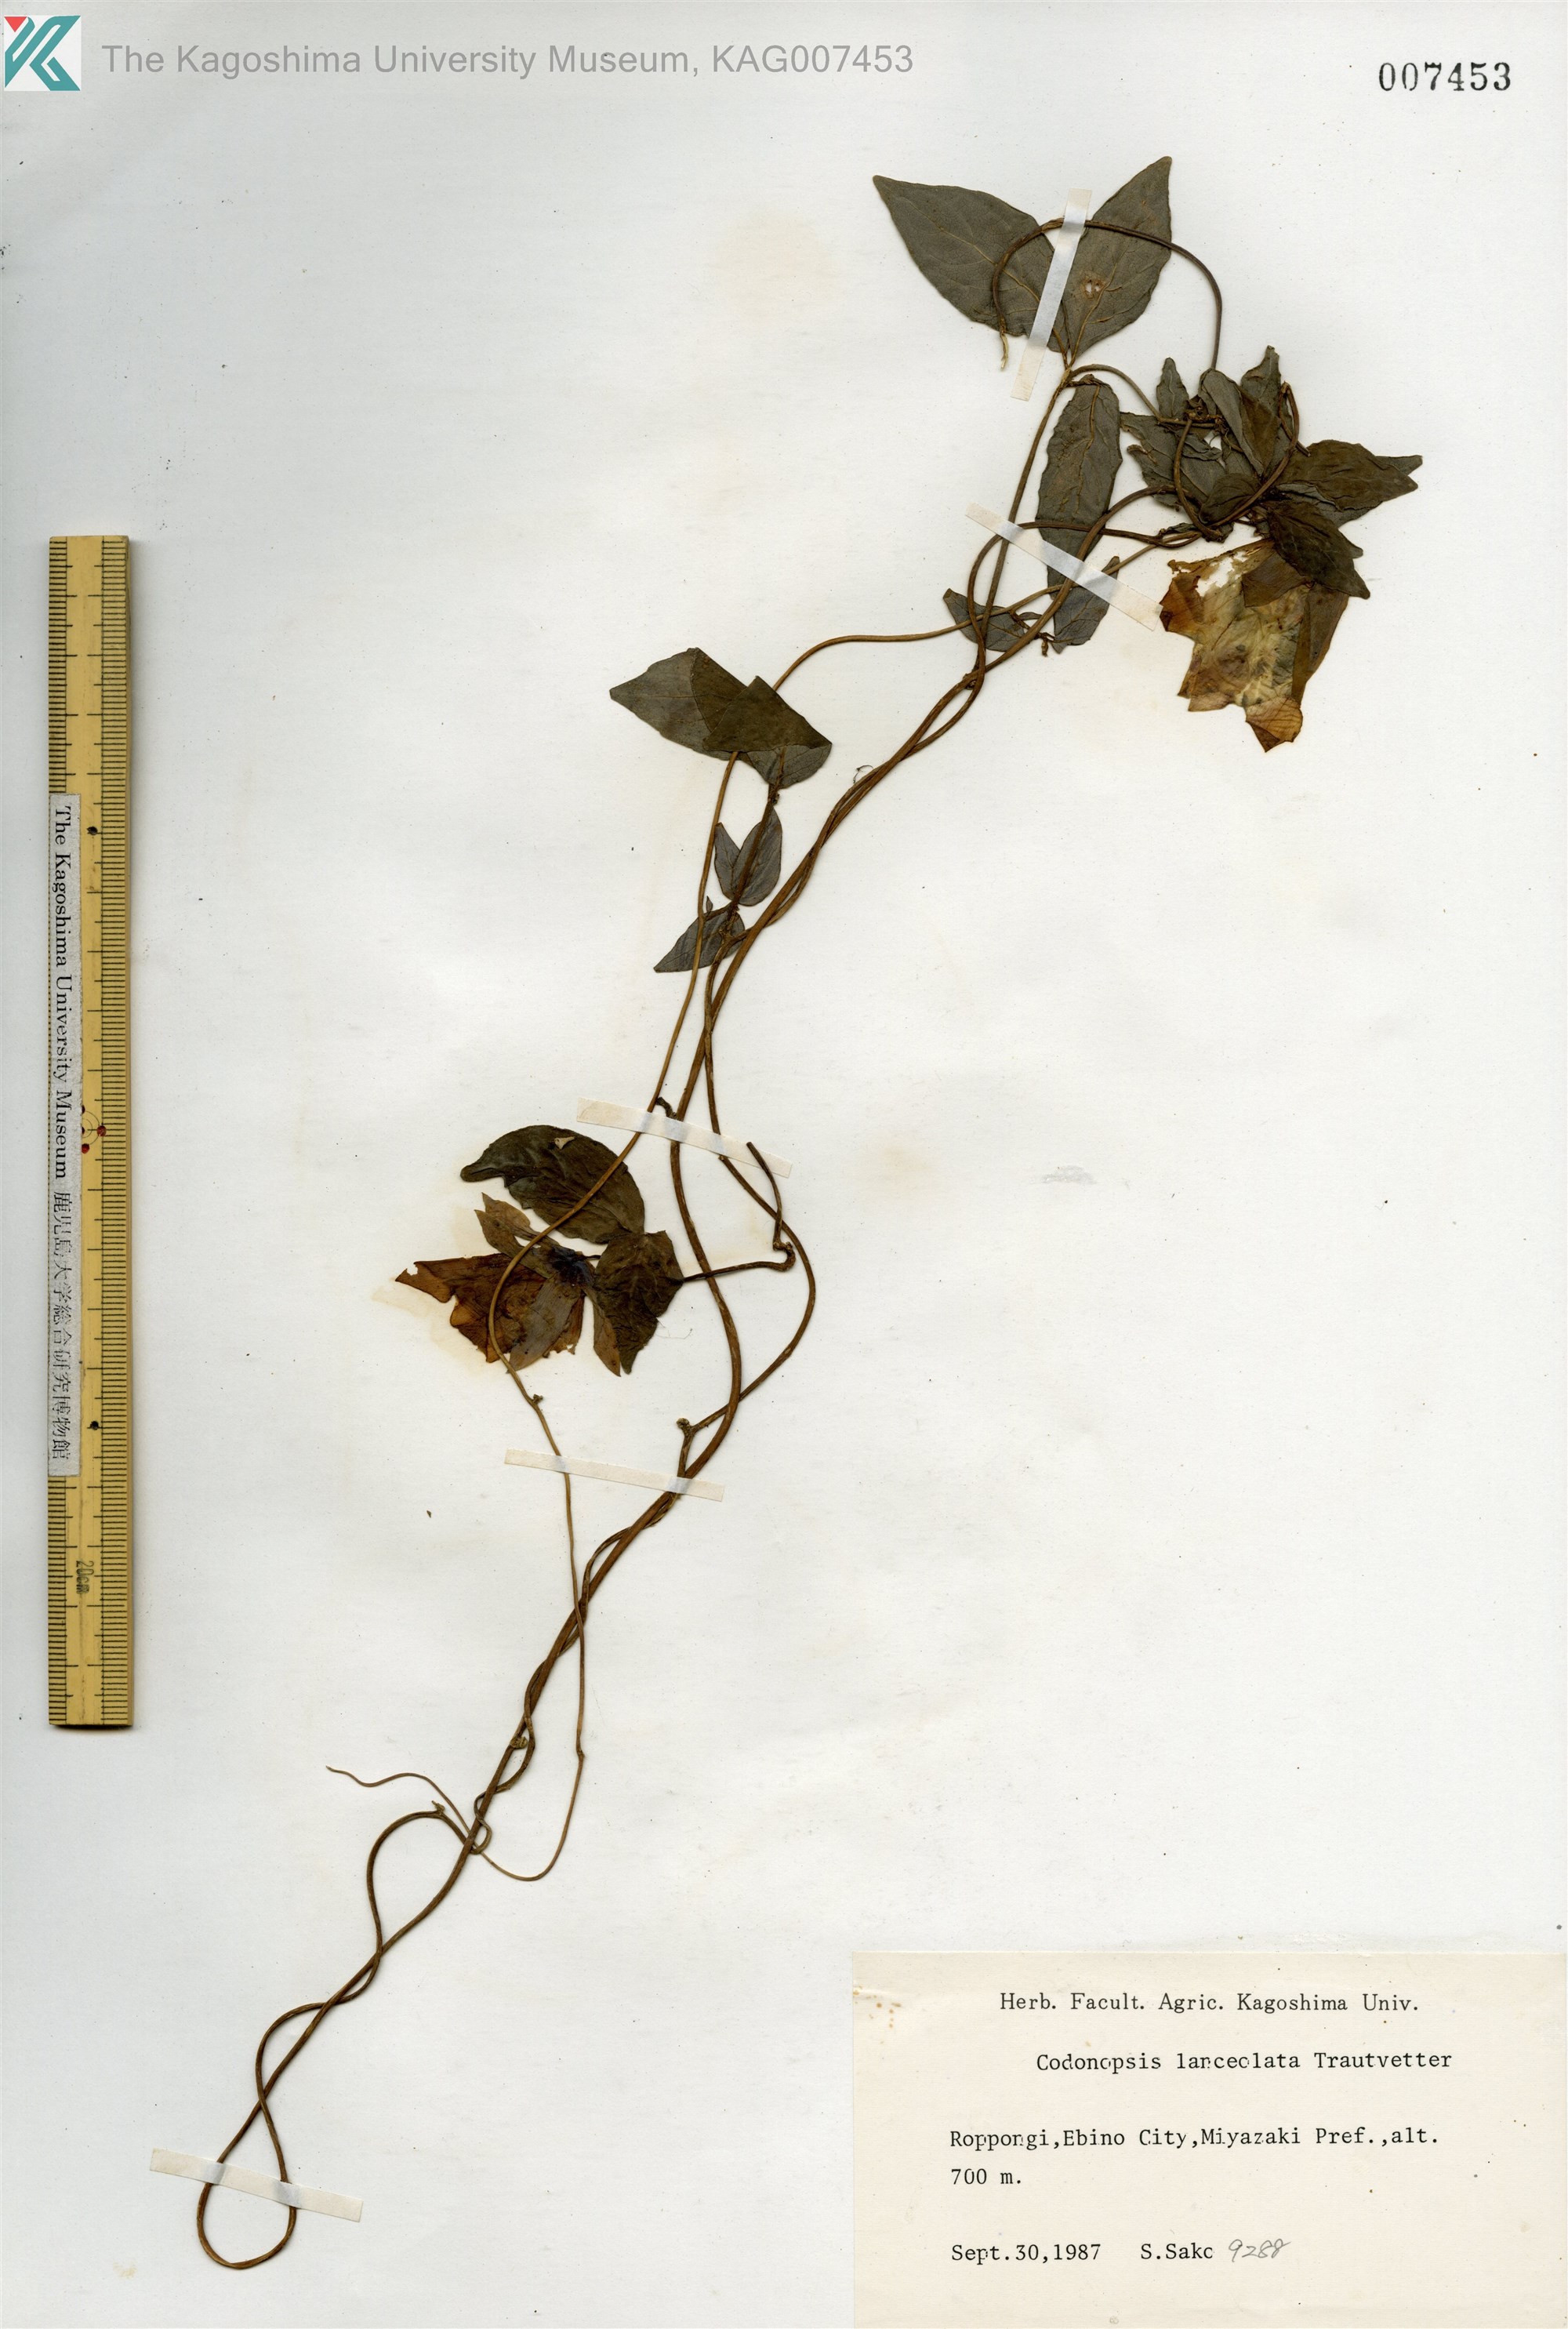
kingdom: Plantae
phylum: Tracheophyta
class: Magnoliopsida
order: Asterales
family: Campanulaceae
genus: Codonopsis
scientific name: Codonopsis lanceolata
